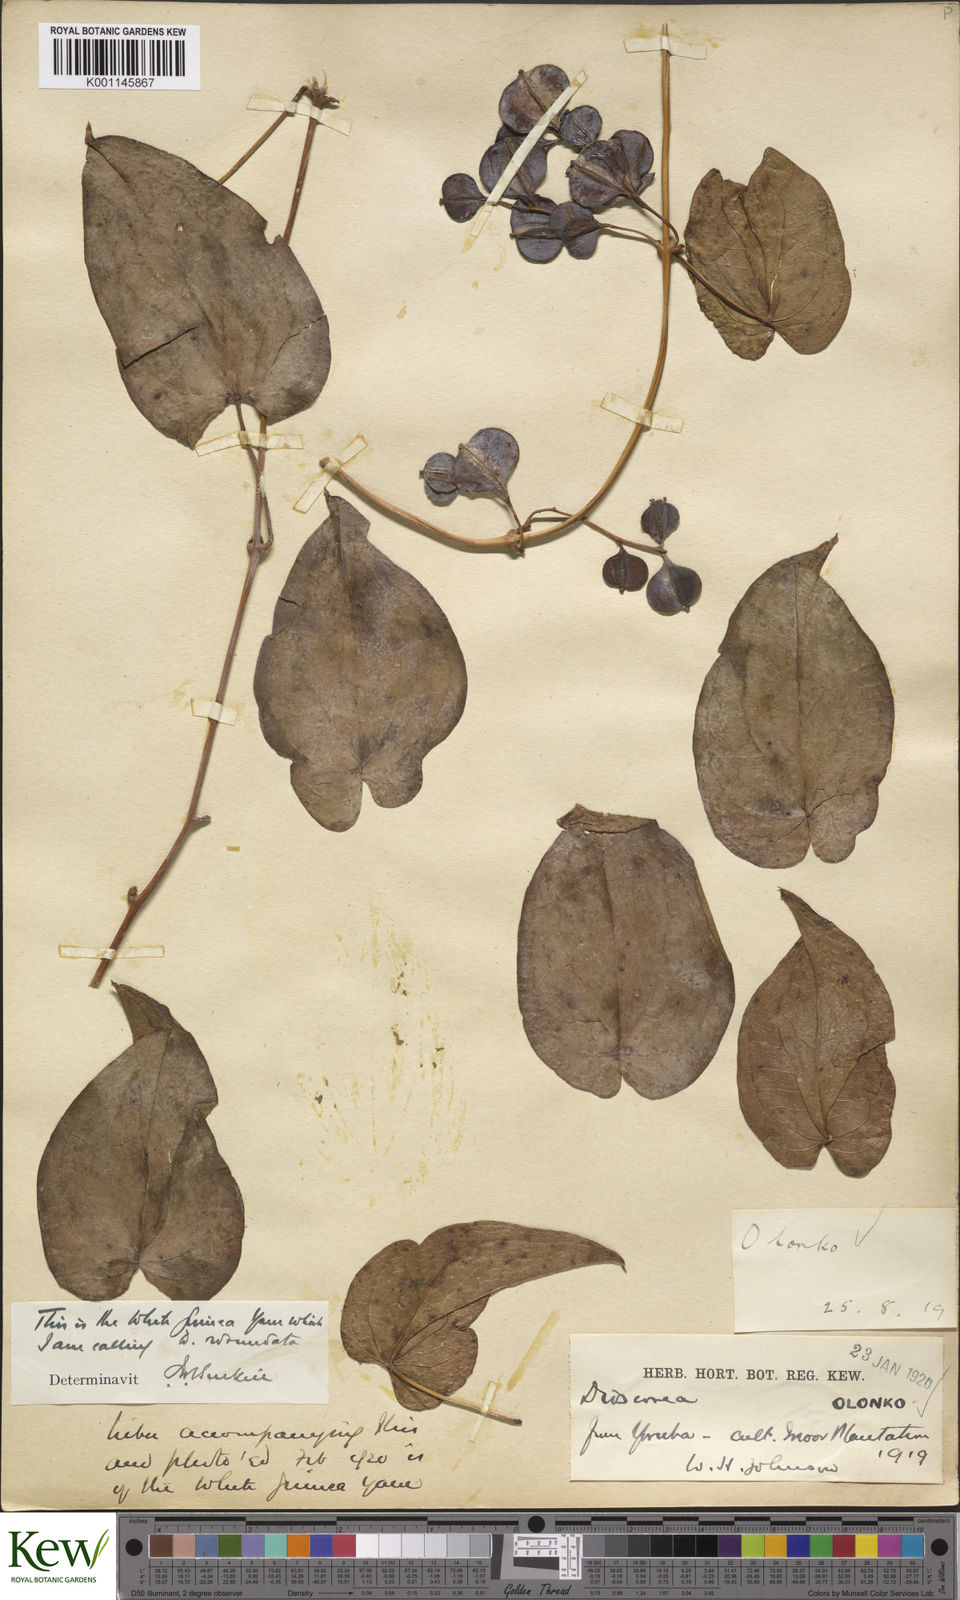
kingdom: Plantae
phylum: Tracheophyta
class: Liliopsida
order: Dioscoreales
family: Dioscoreaceae
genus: Dioscorea
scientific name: Dioscorea cayenensis
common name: Attoto yam
